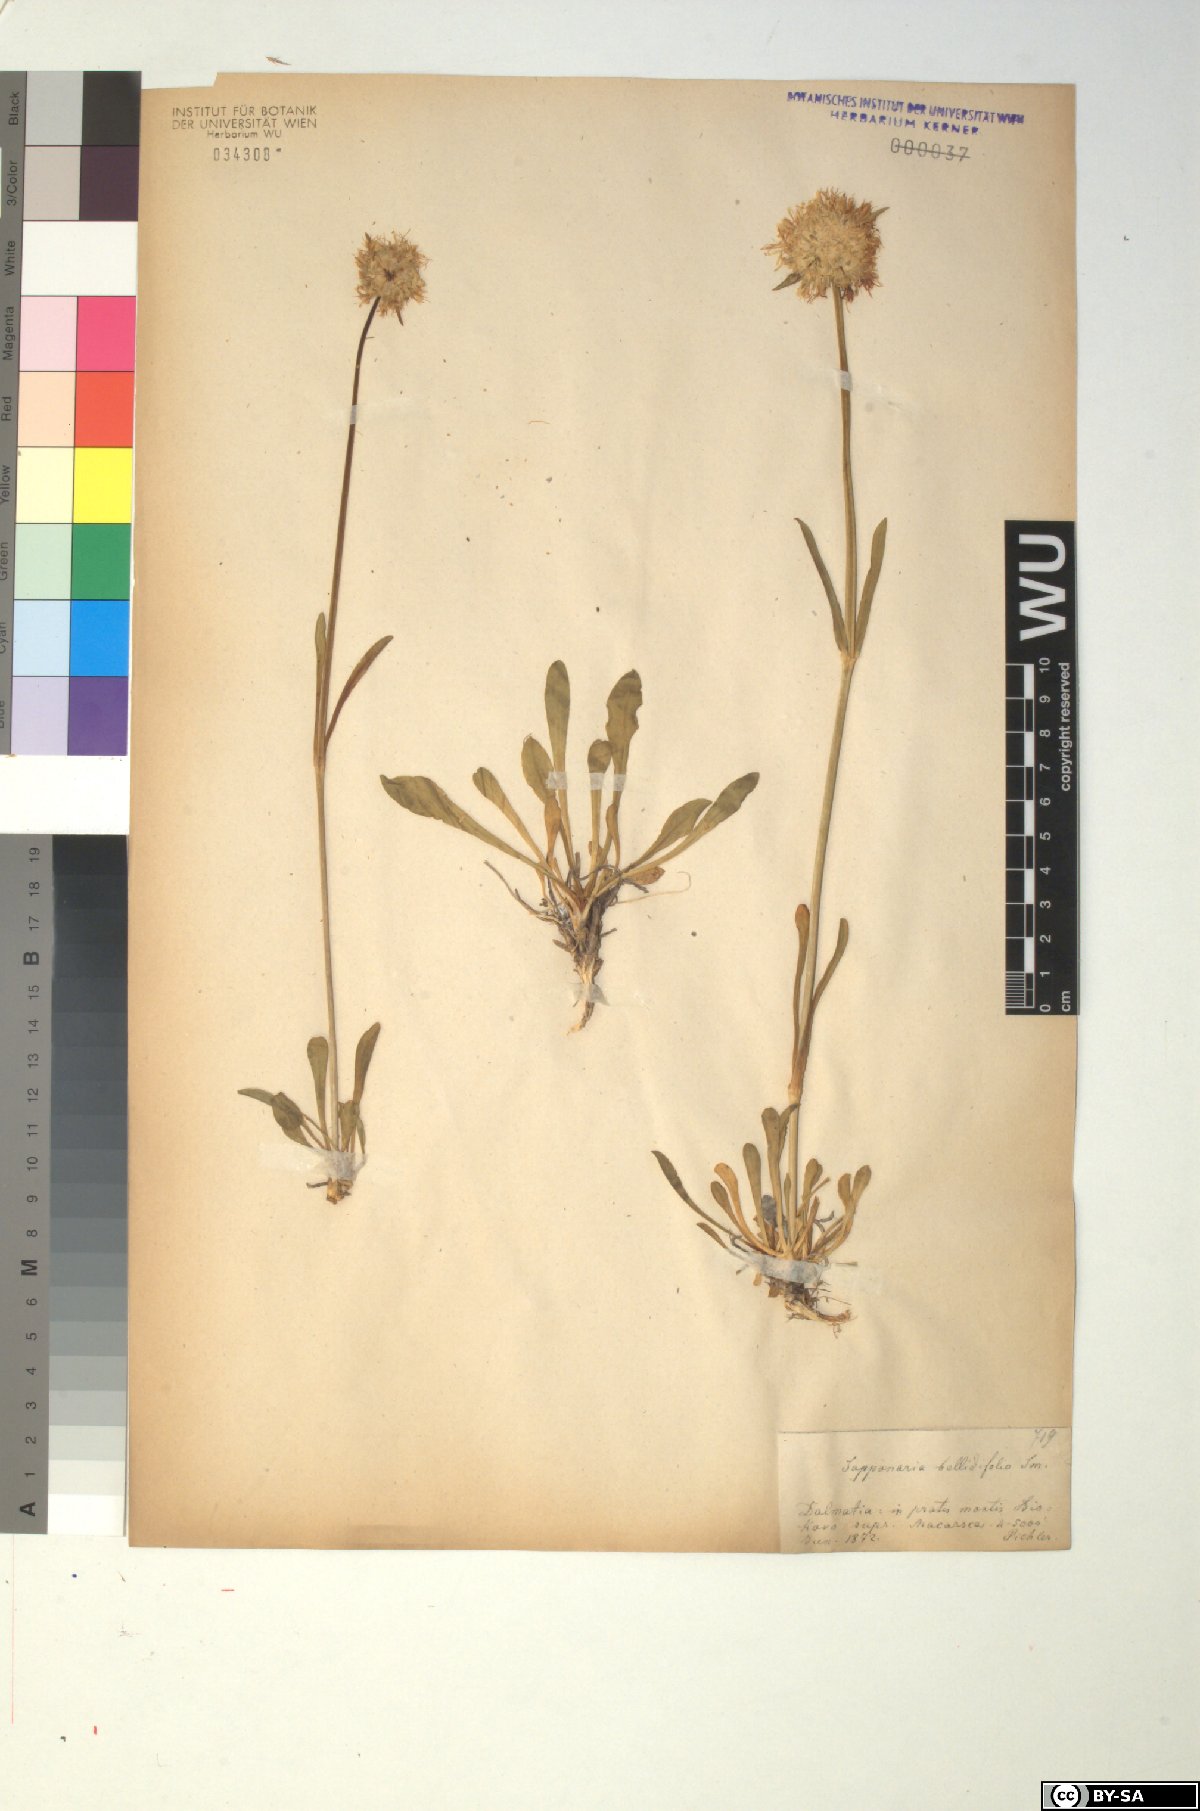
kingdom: Plantae
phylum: Tracheophyta
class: Magnoliopsida
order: Caryophyllales
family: Caryophyllaceae
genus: Saponaria
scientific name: Saponaria bellidifolia
